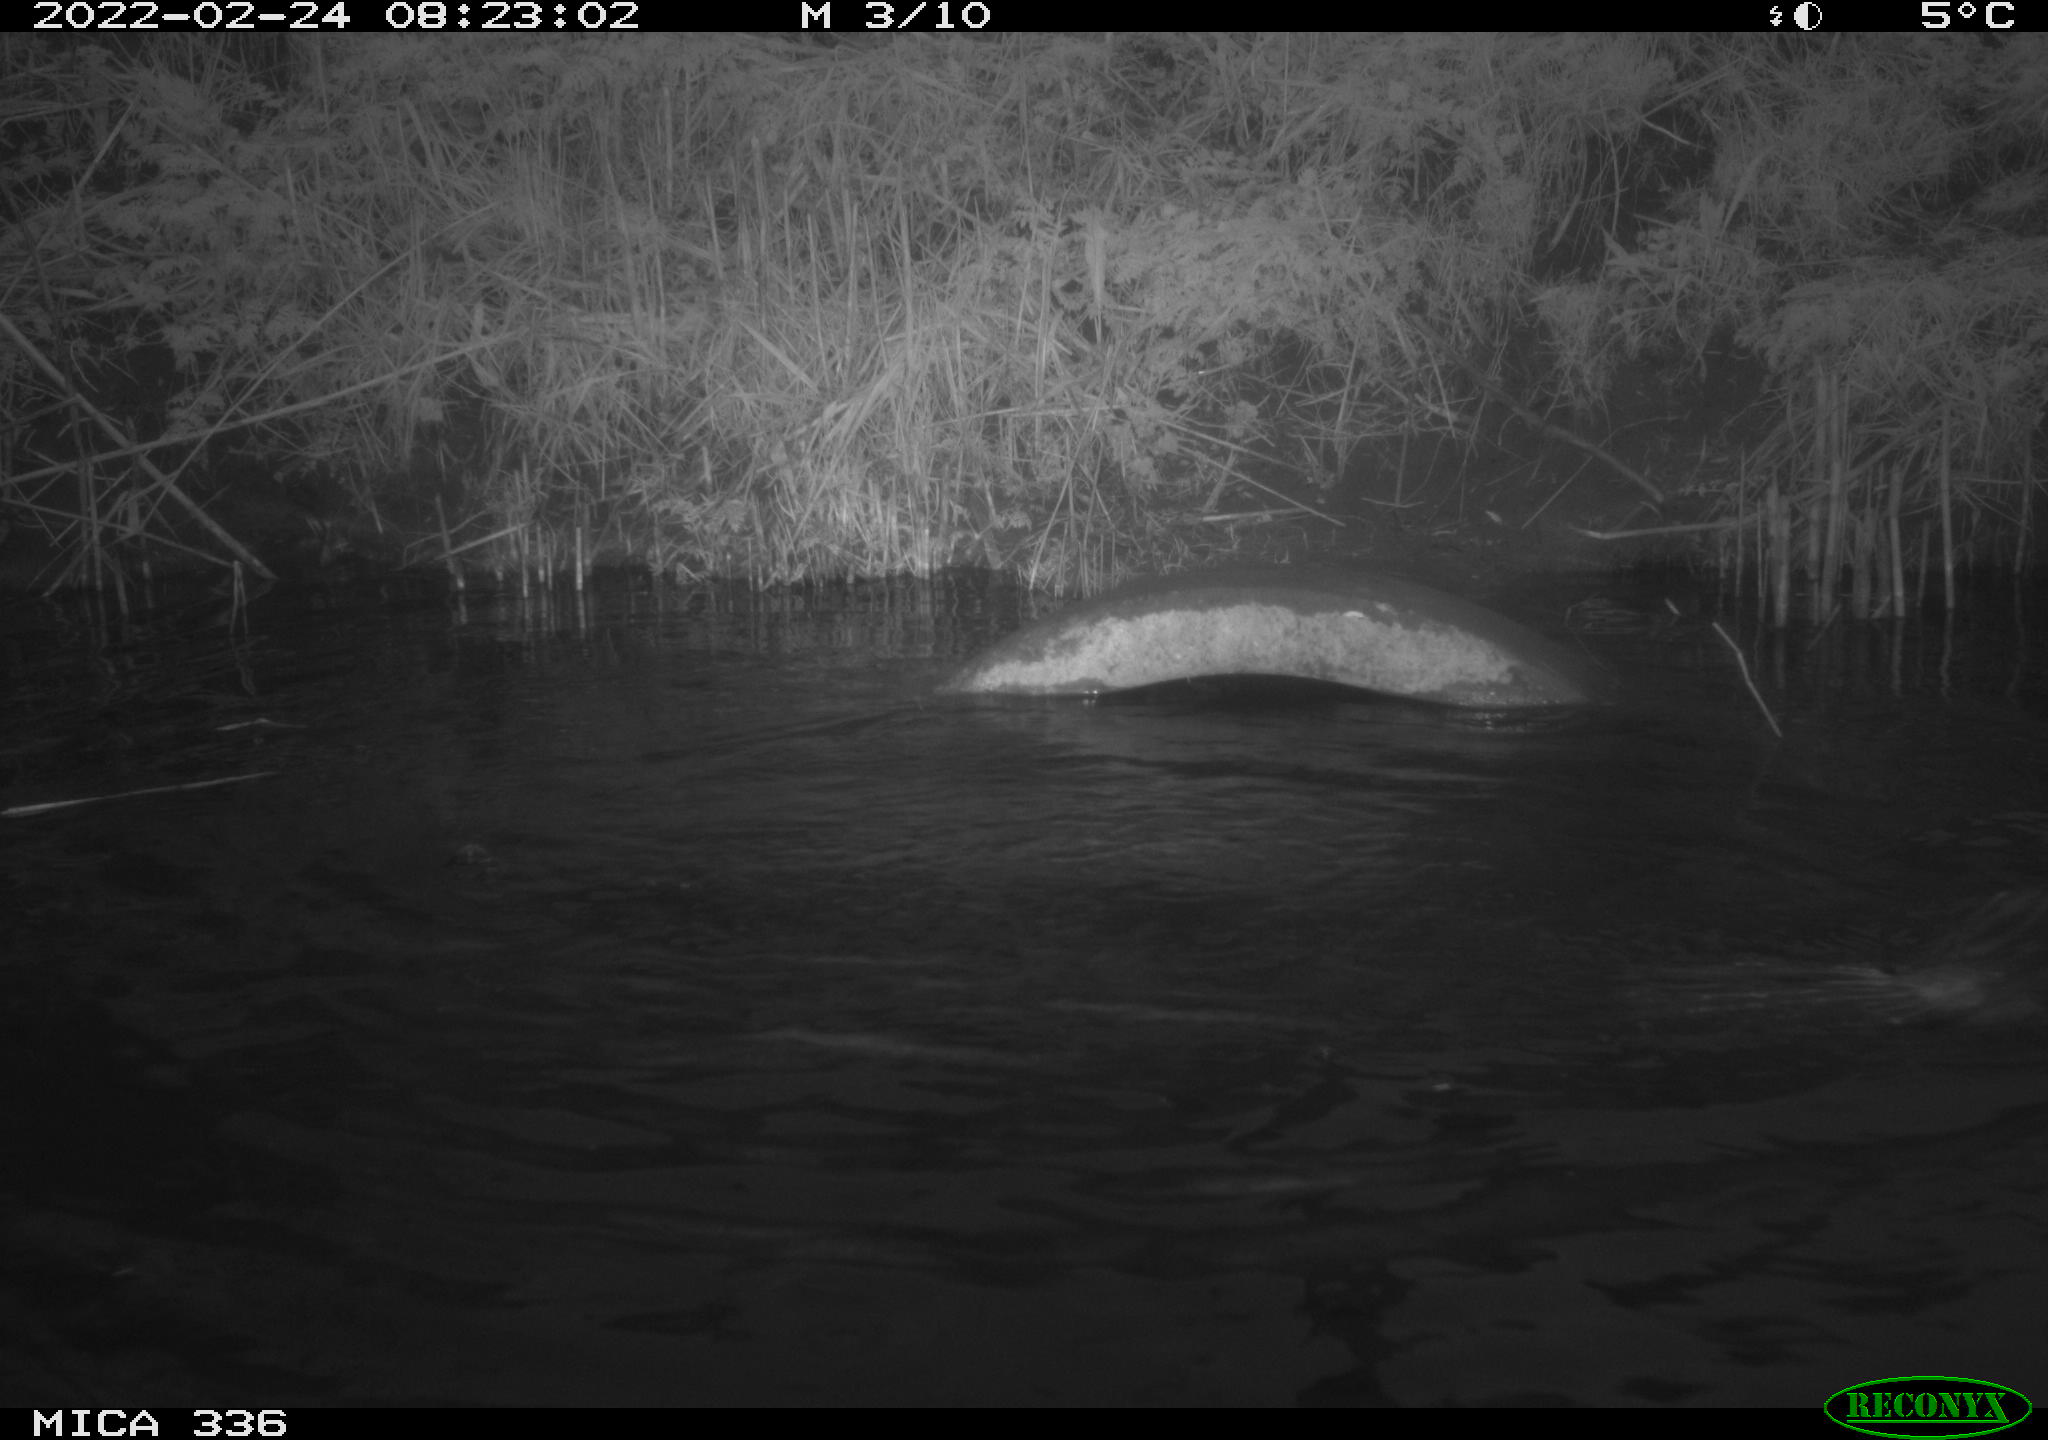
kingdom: Animalia
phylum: Chordata
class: Aves
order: Suliformes
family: Phalacrocoracidae
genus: Phalacrocorax
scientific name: Phalacrocorax carbo
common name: Great cormorant
